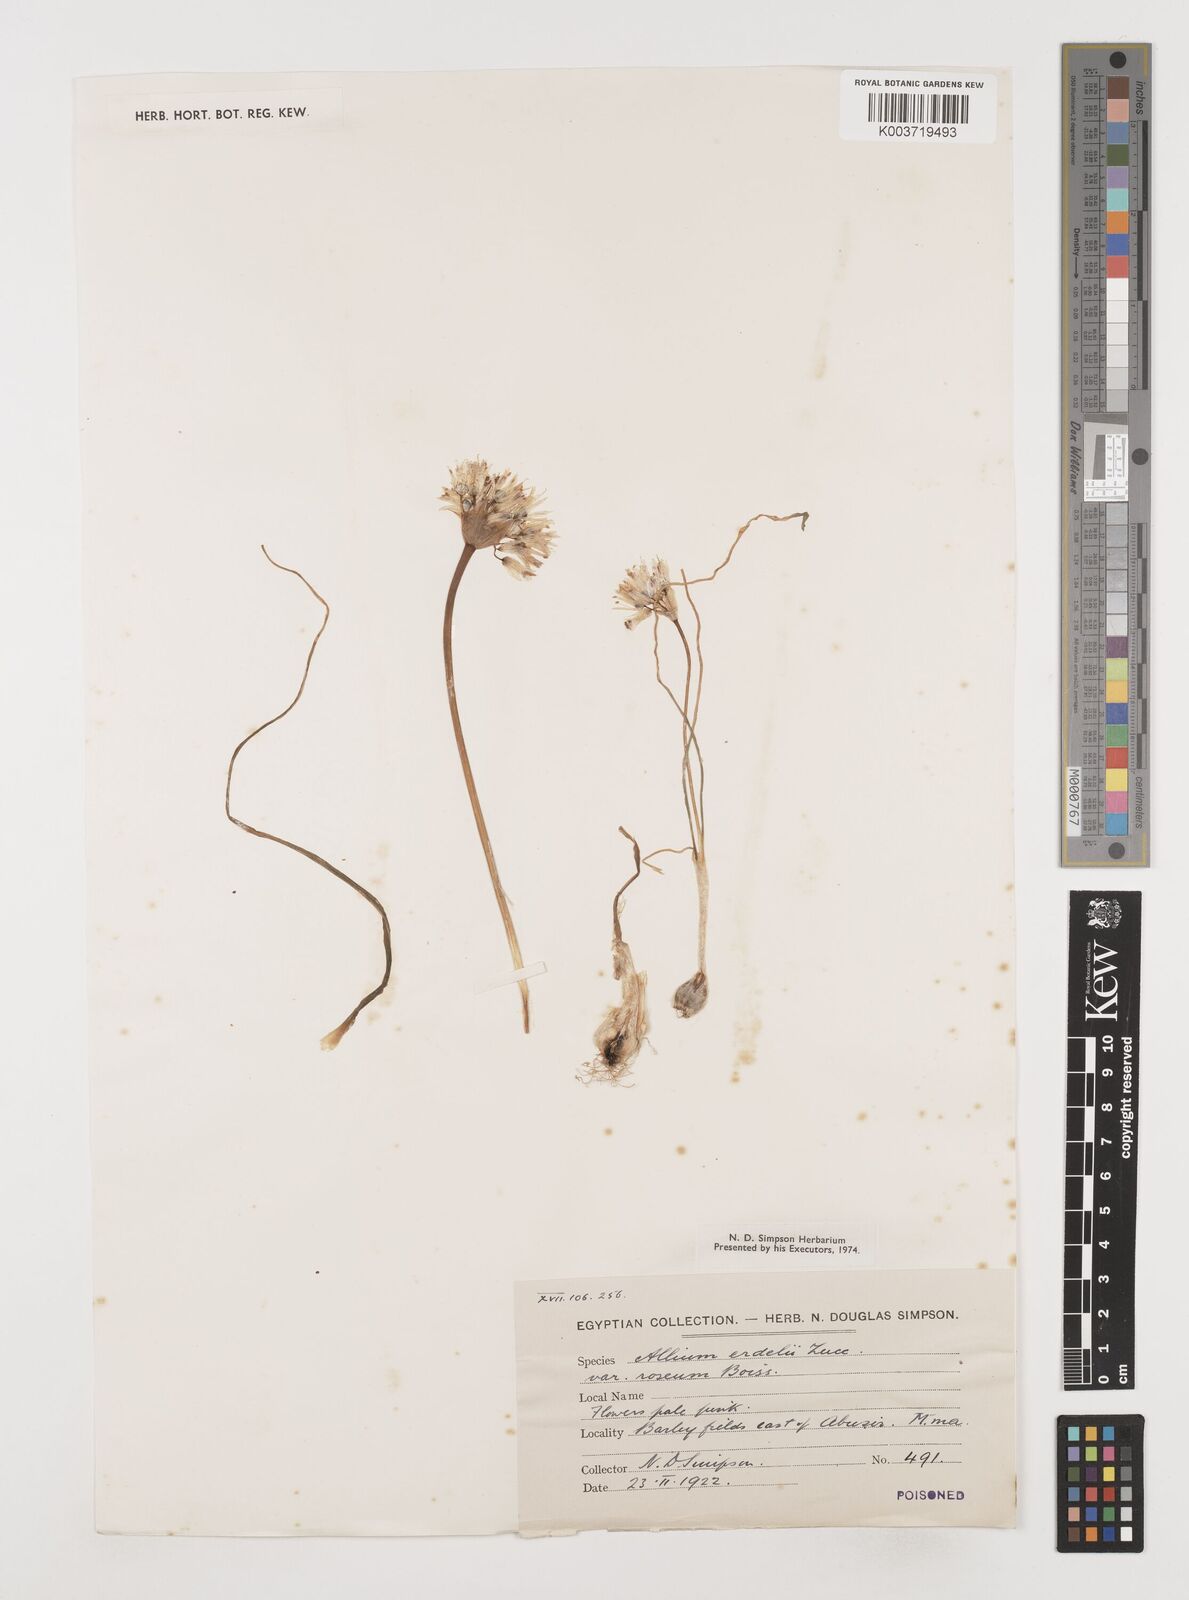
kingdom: Plantae
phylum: Tracheophyta
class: Liliopsida
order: Asparagales
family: Amaryllidaceae
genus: Allium
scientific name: Allium erdelii
